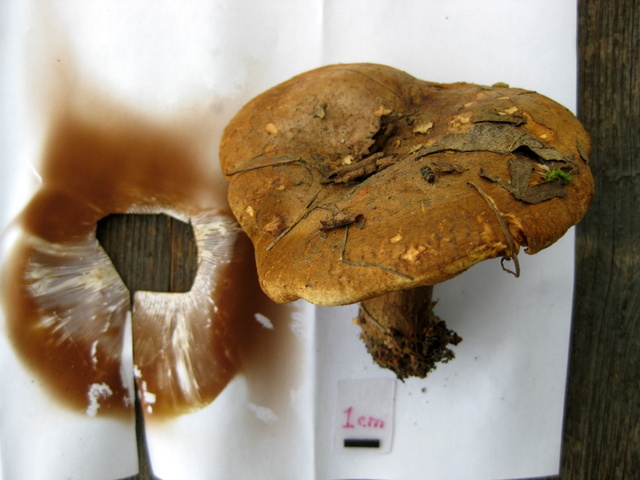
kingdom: Fungi
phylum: Basidiomycota
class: Agaricomycetes
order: Boletales
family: Paxillaceae
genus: Paxillus
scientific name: Paxillus obscurisporus
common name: mahognisporet netbladhat
